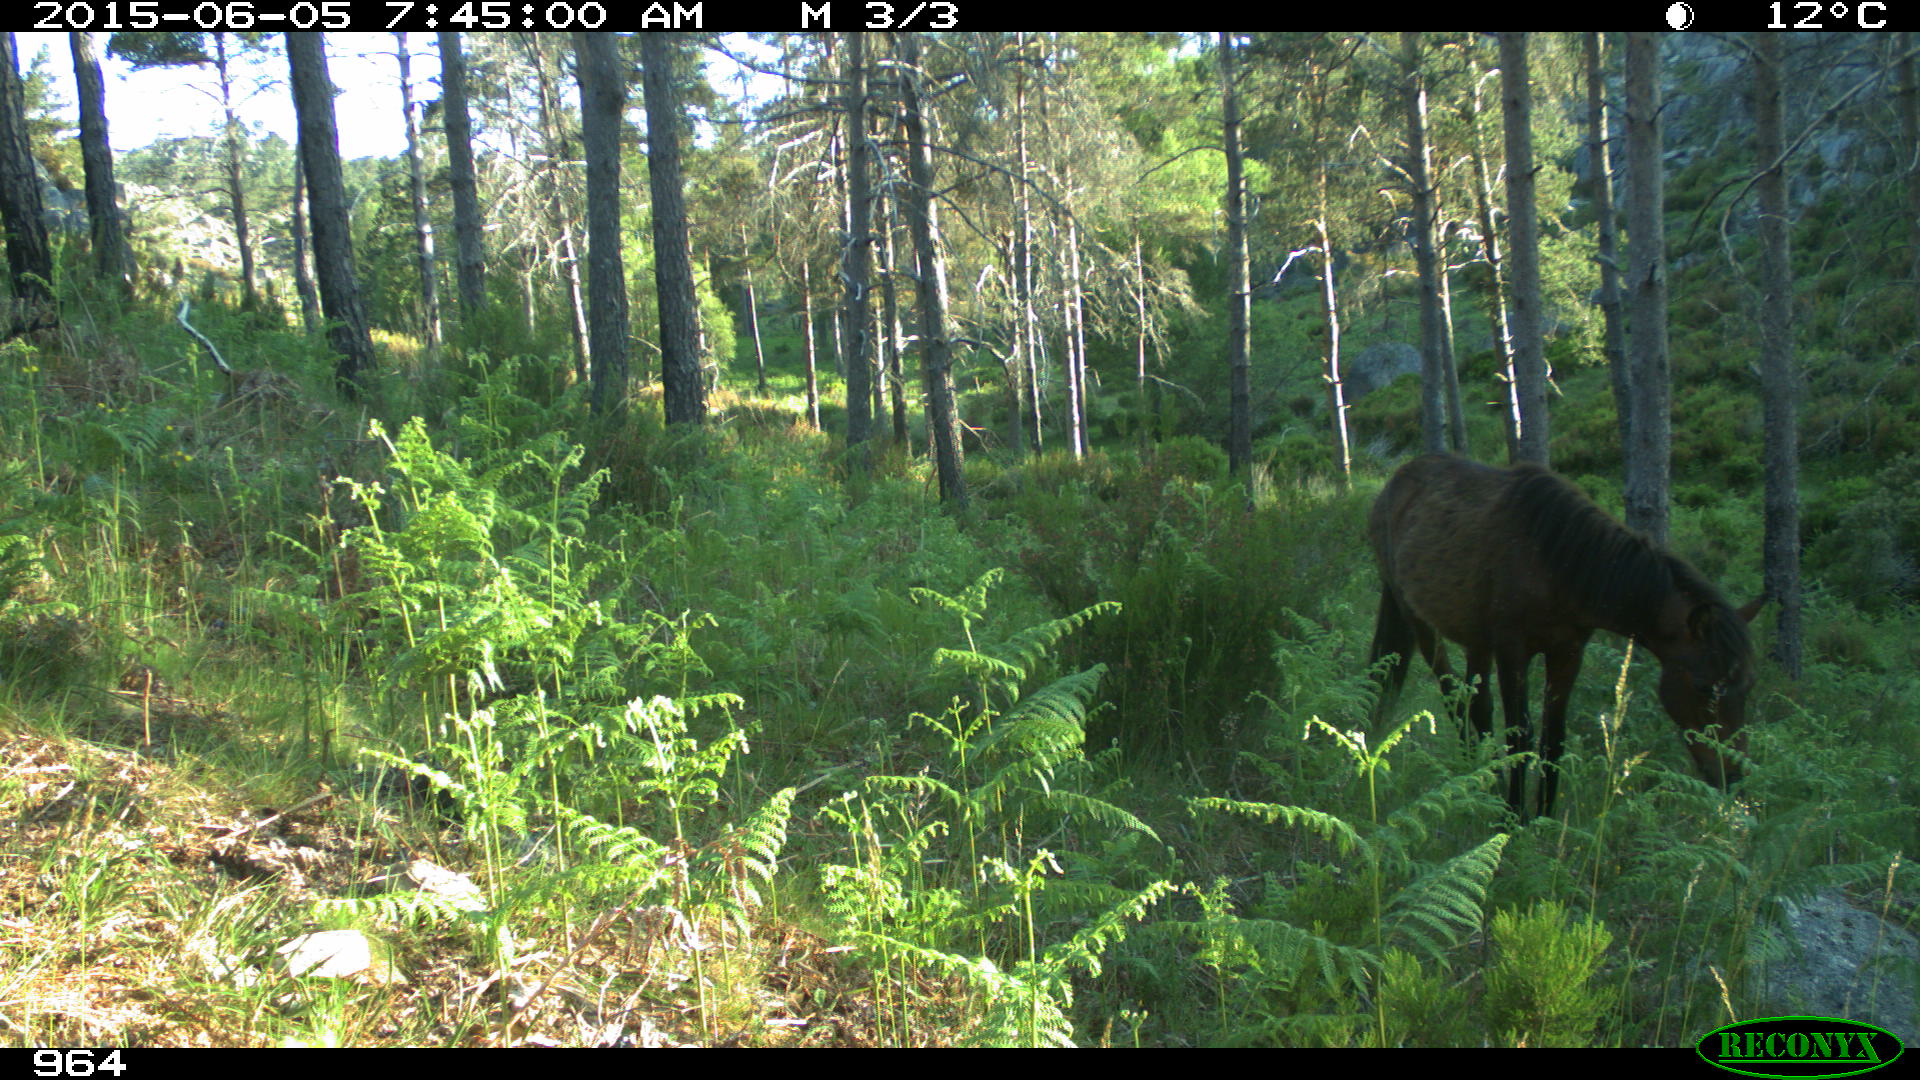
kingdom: Animalia
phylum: Chordata
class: Mammalia
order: Perissodactyla
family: Equidae
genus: Equus
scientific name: Equus caballus
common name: Horse
